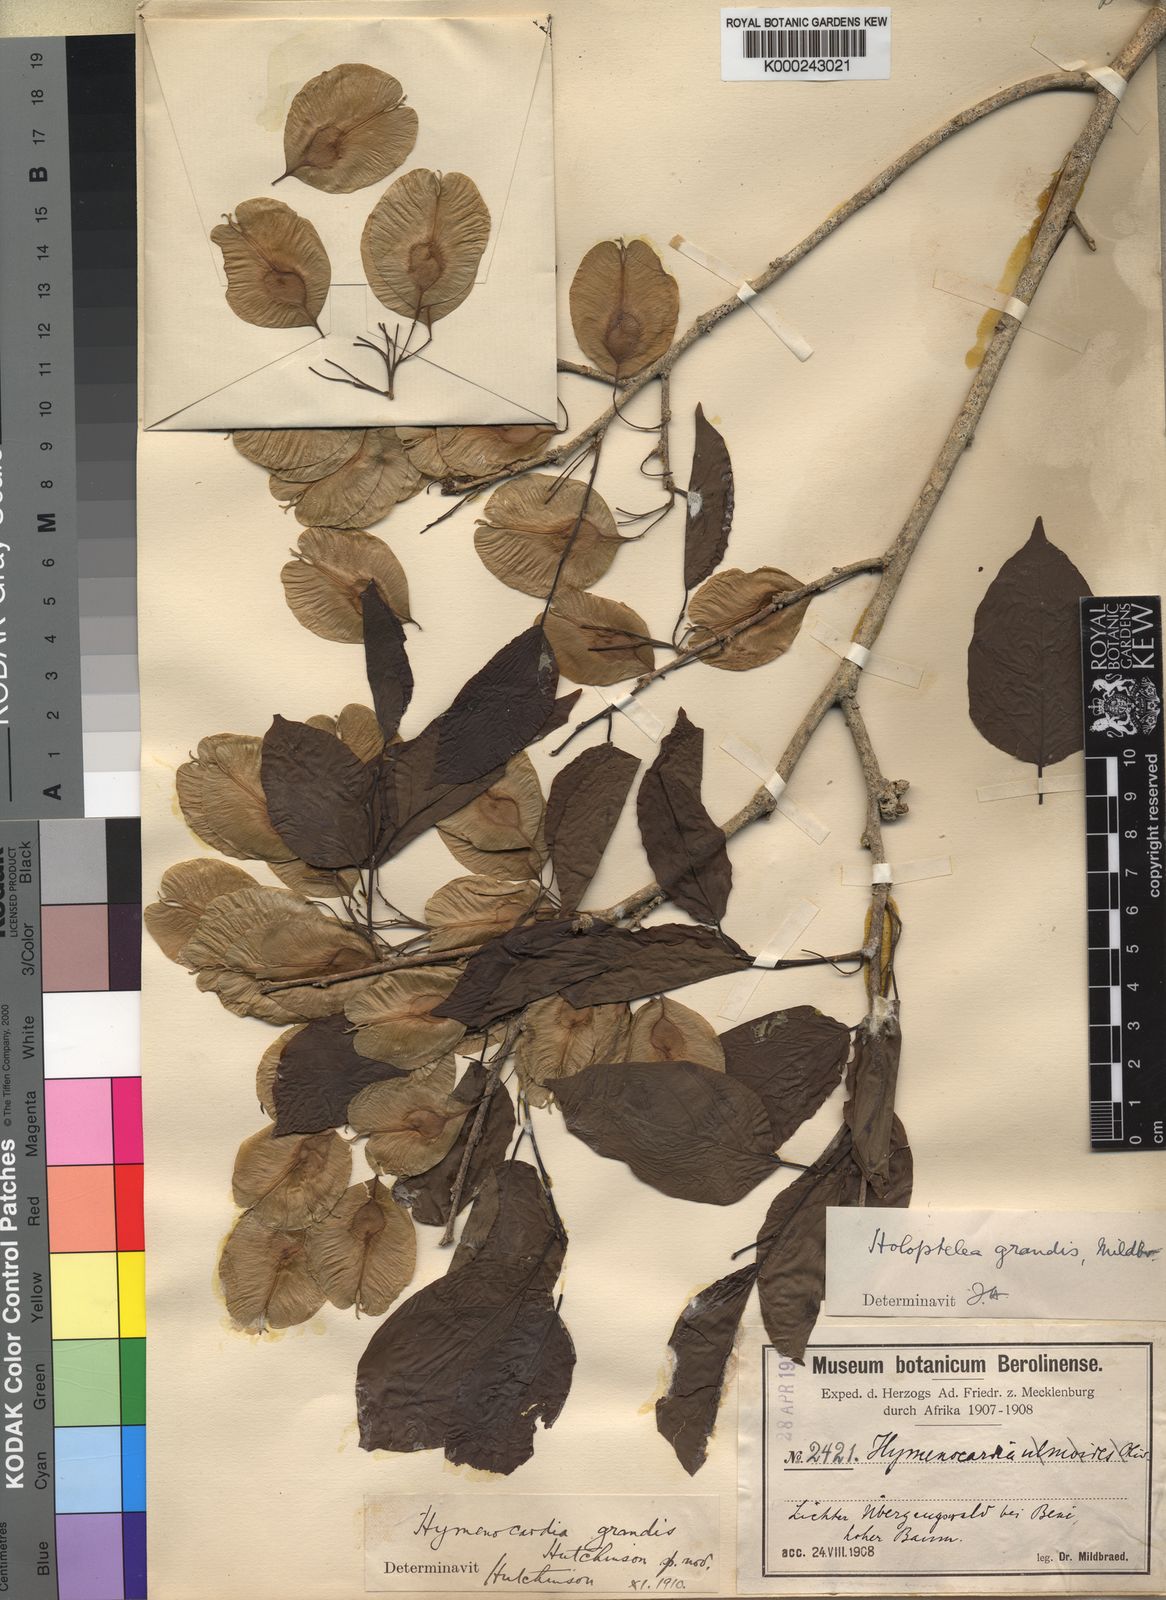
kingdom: Plantae
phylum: Tracheophyta
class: Magnoliopsida
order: Rosales
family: Ulmaceae
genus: Holoptelea
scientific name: Holoptelea grandis
